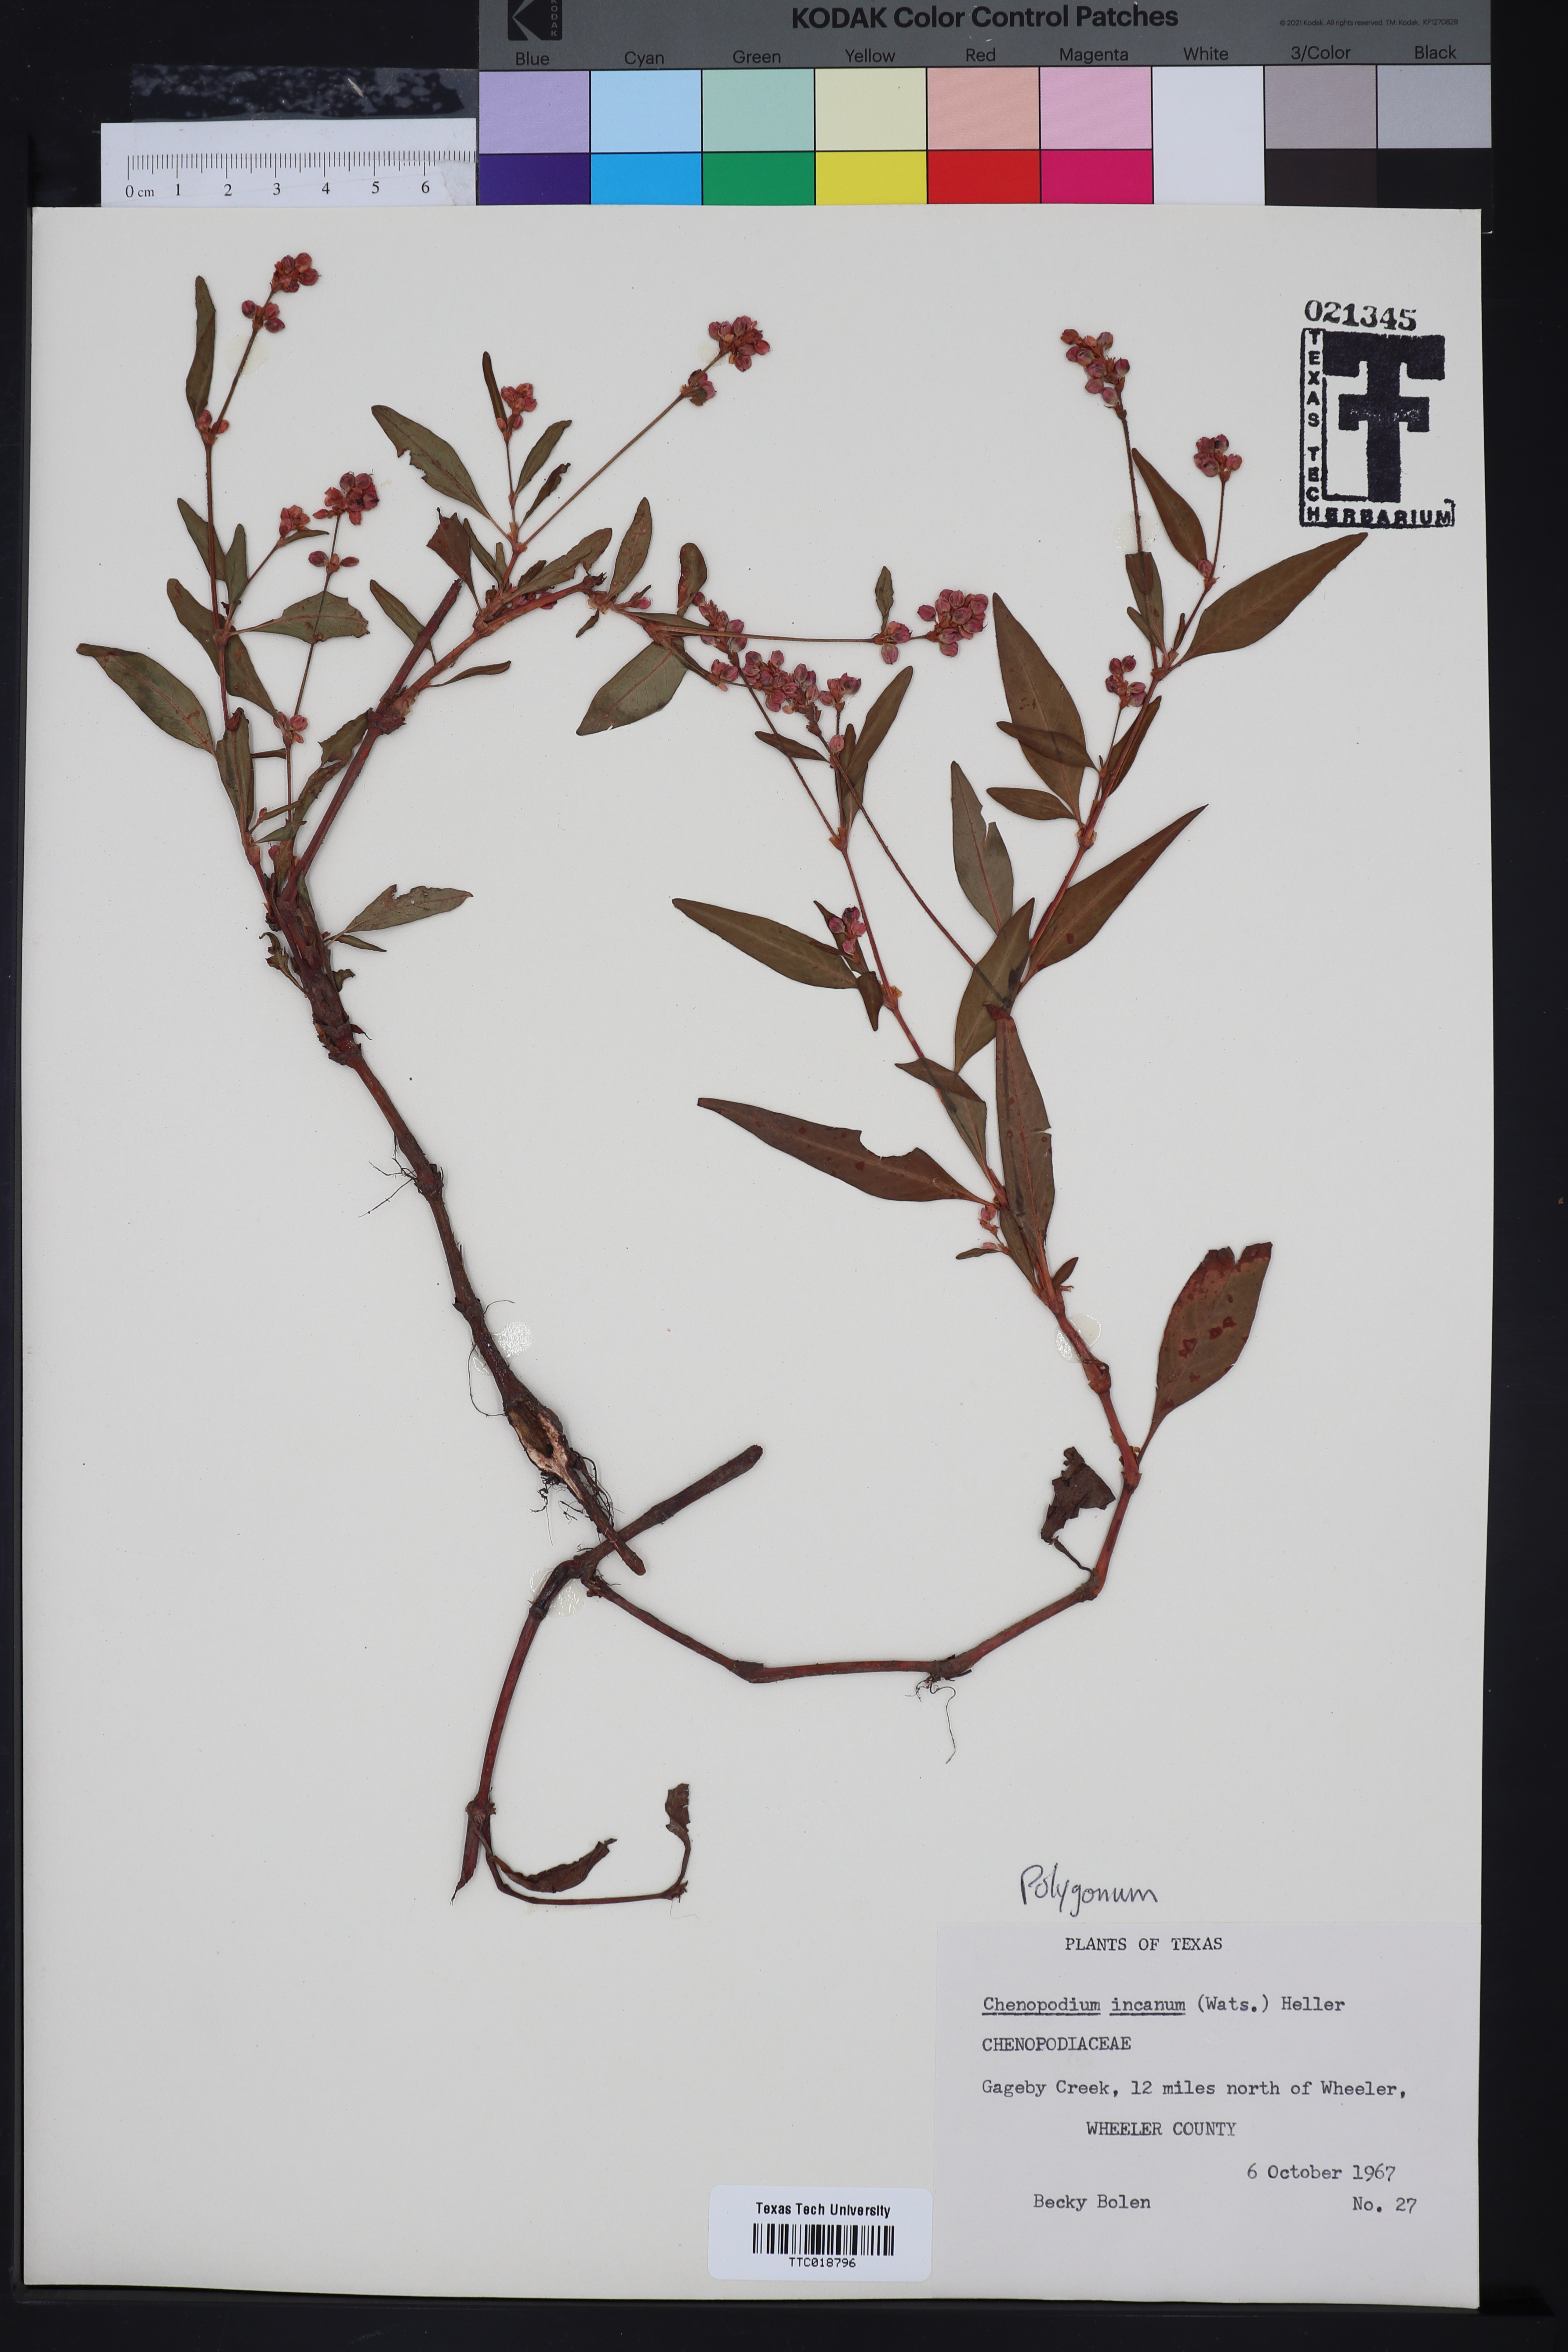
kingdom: Plantae
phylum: Tracheophyta
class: Magnoliopsida
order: Caryophyllales
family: Polygonaceae
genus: Polygonum
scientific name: Polygonum
